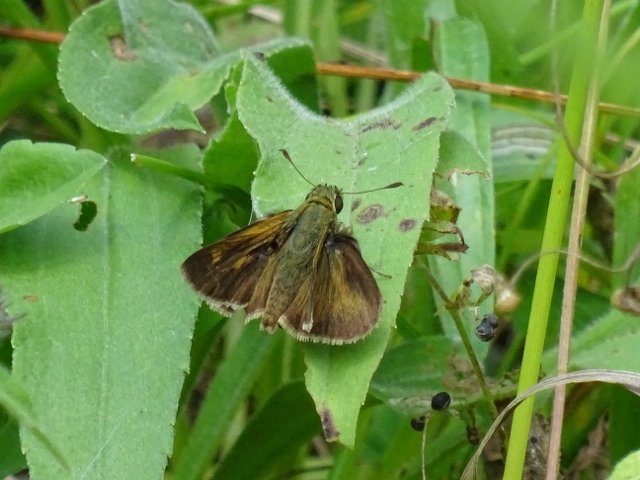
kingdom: Animalia
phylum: Arthropoda
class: Insecta
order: Lepidoptera
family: Hesperiidae
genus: Polites
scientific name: Polites
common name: Long Dash Skipper
